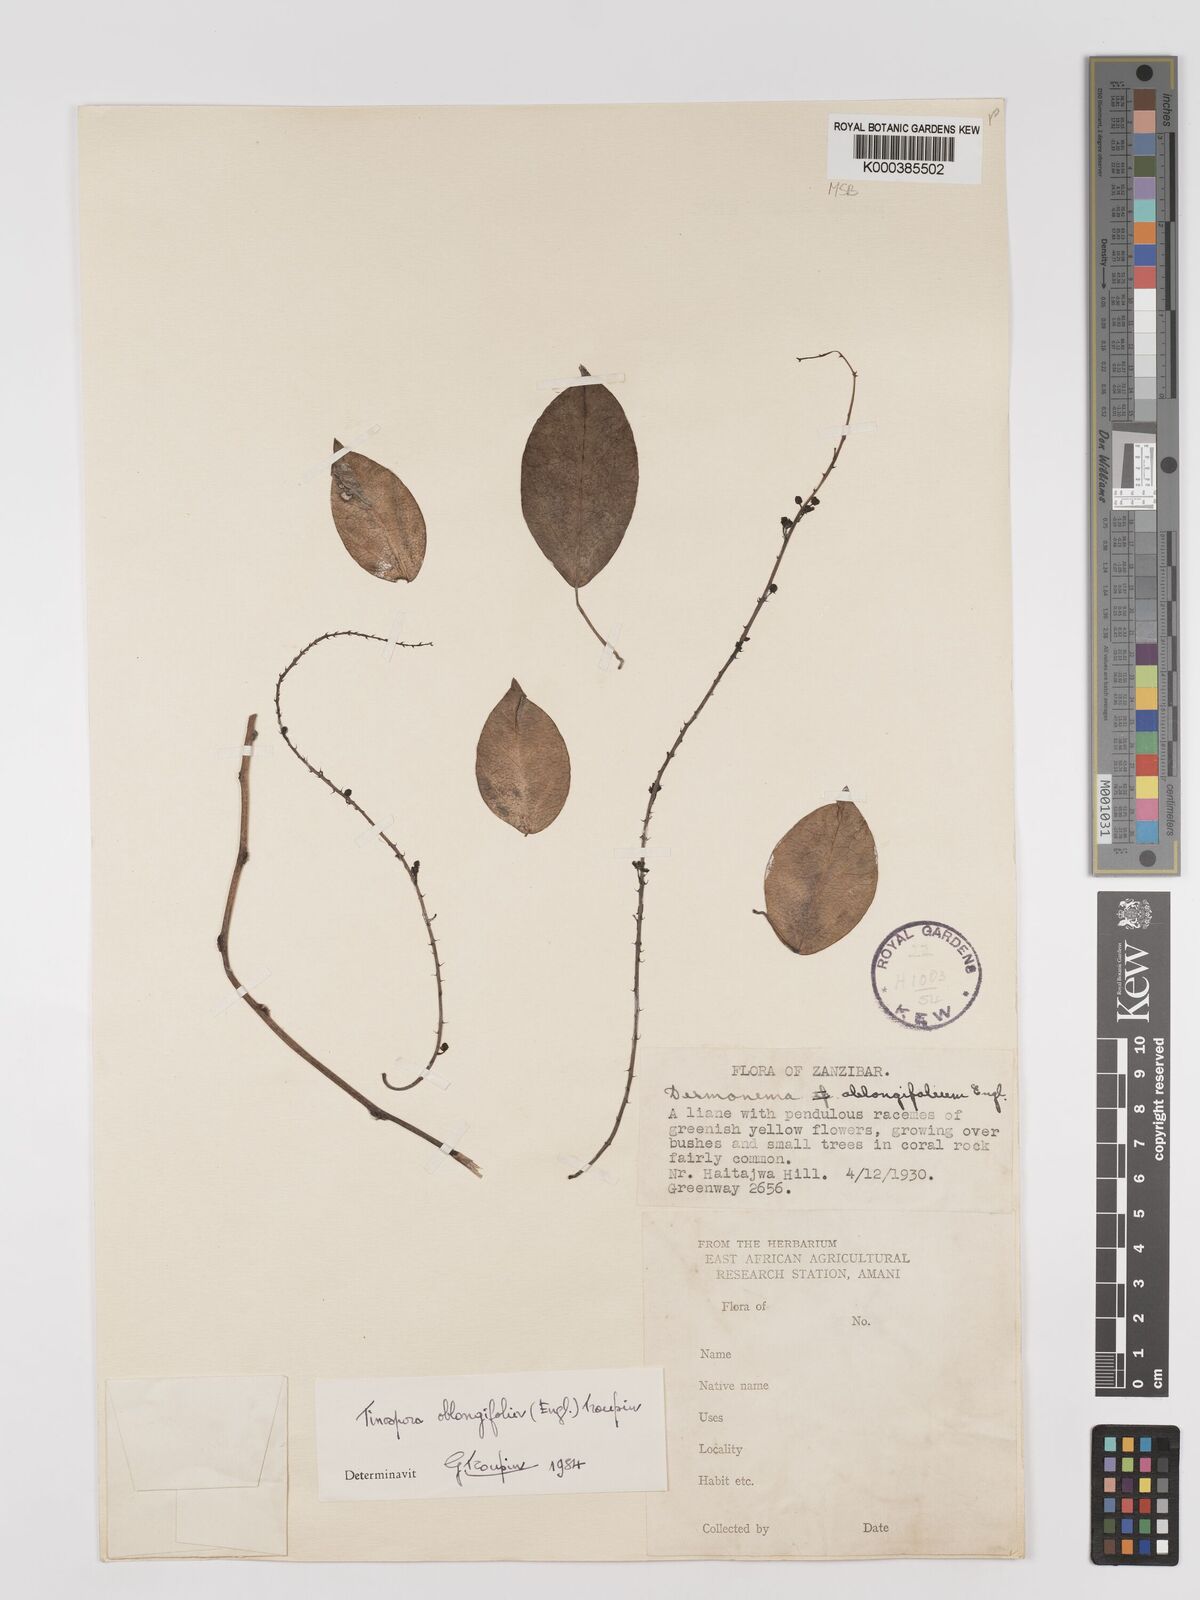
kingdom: Plantae
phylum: Tracheophyta
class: Magnoliopsida
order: Ranunculales
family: Menispermaceae
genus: Tinospora
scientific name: Tinospora oblongifolia
